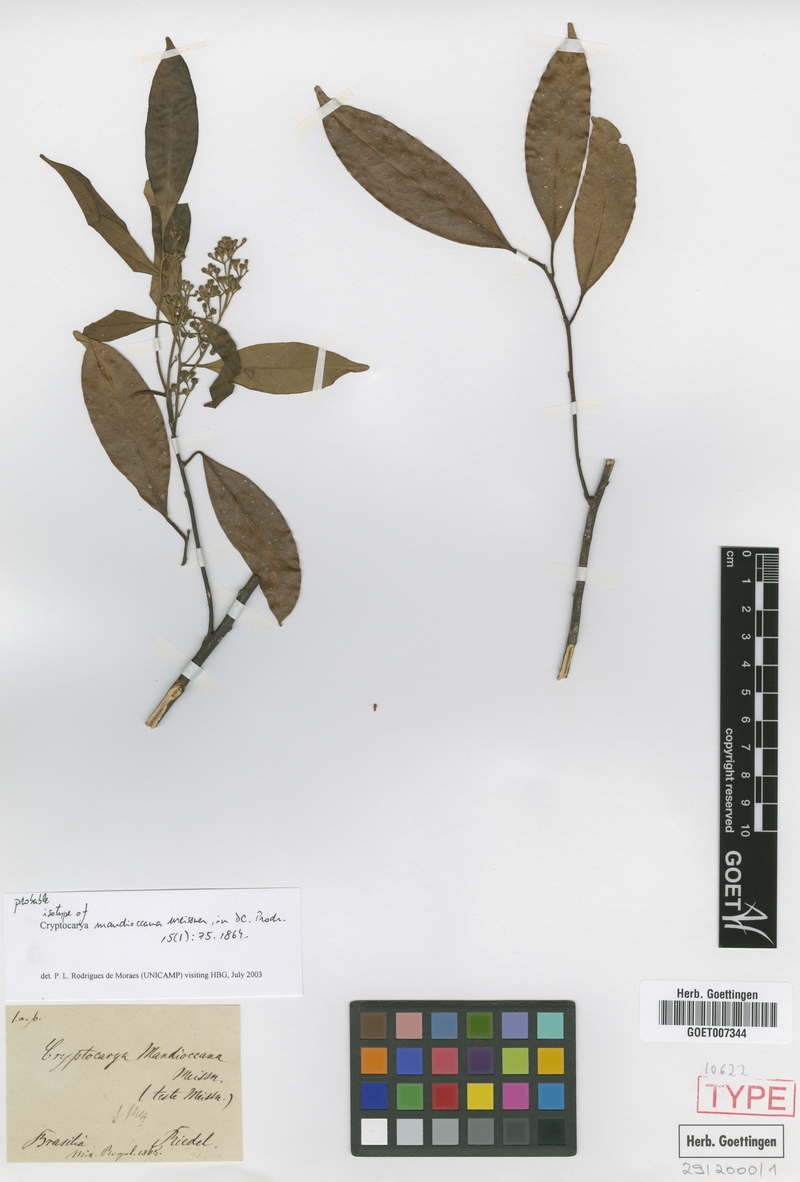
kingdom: Plantae
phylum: Tracheophyta
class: Magnoliopsida
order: Laurales
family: Lauraceae
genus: Cryptocarya
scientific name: Cryptocarya mandioccana
